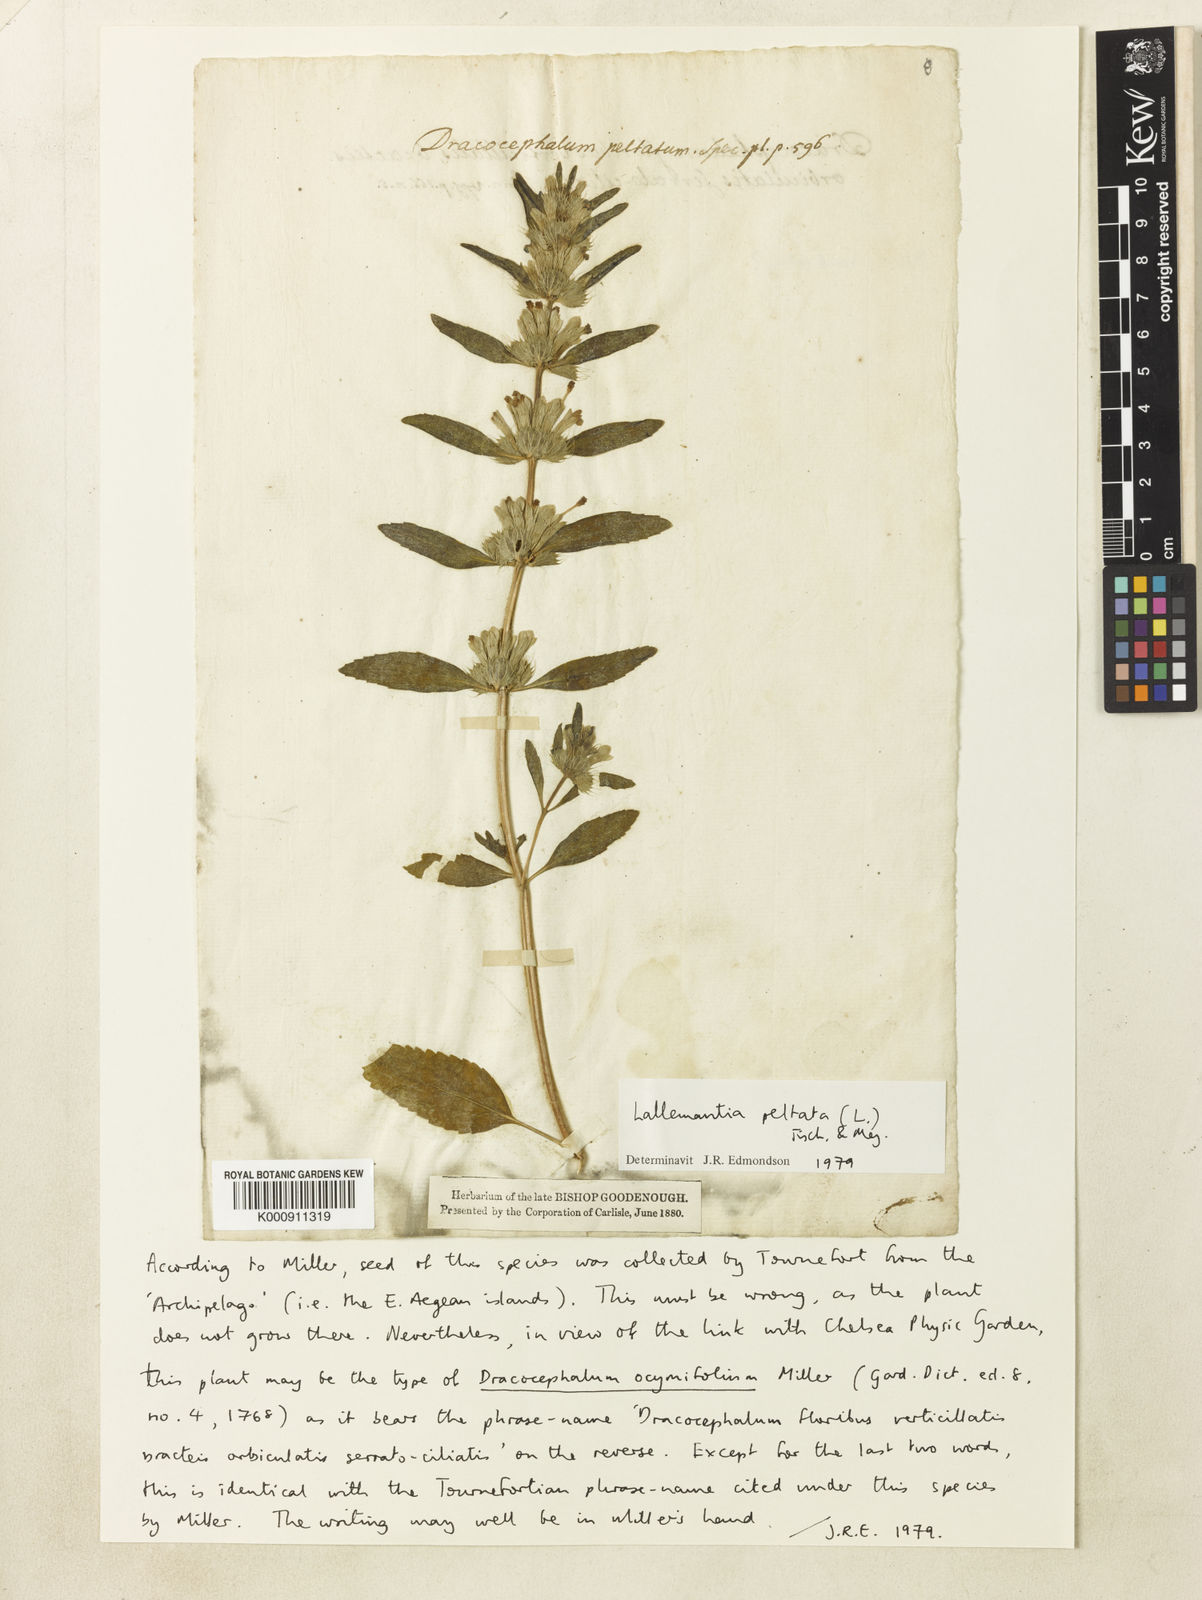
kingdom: Plantae
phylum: Tracheophyta
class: Magnoliopsida
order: Lamiales
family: Lamiaceae
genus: Lallemantia
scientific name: Lallemantia peltata
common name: Lion's heart
